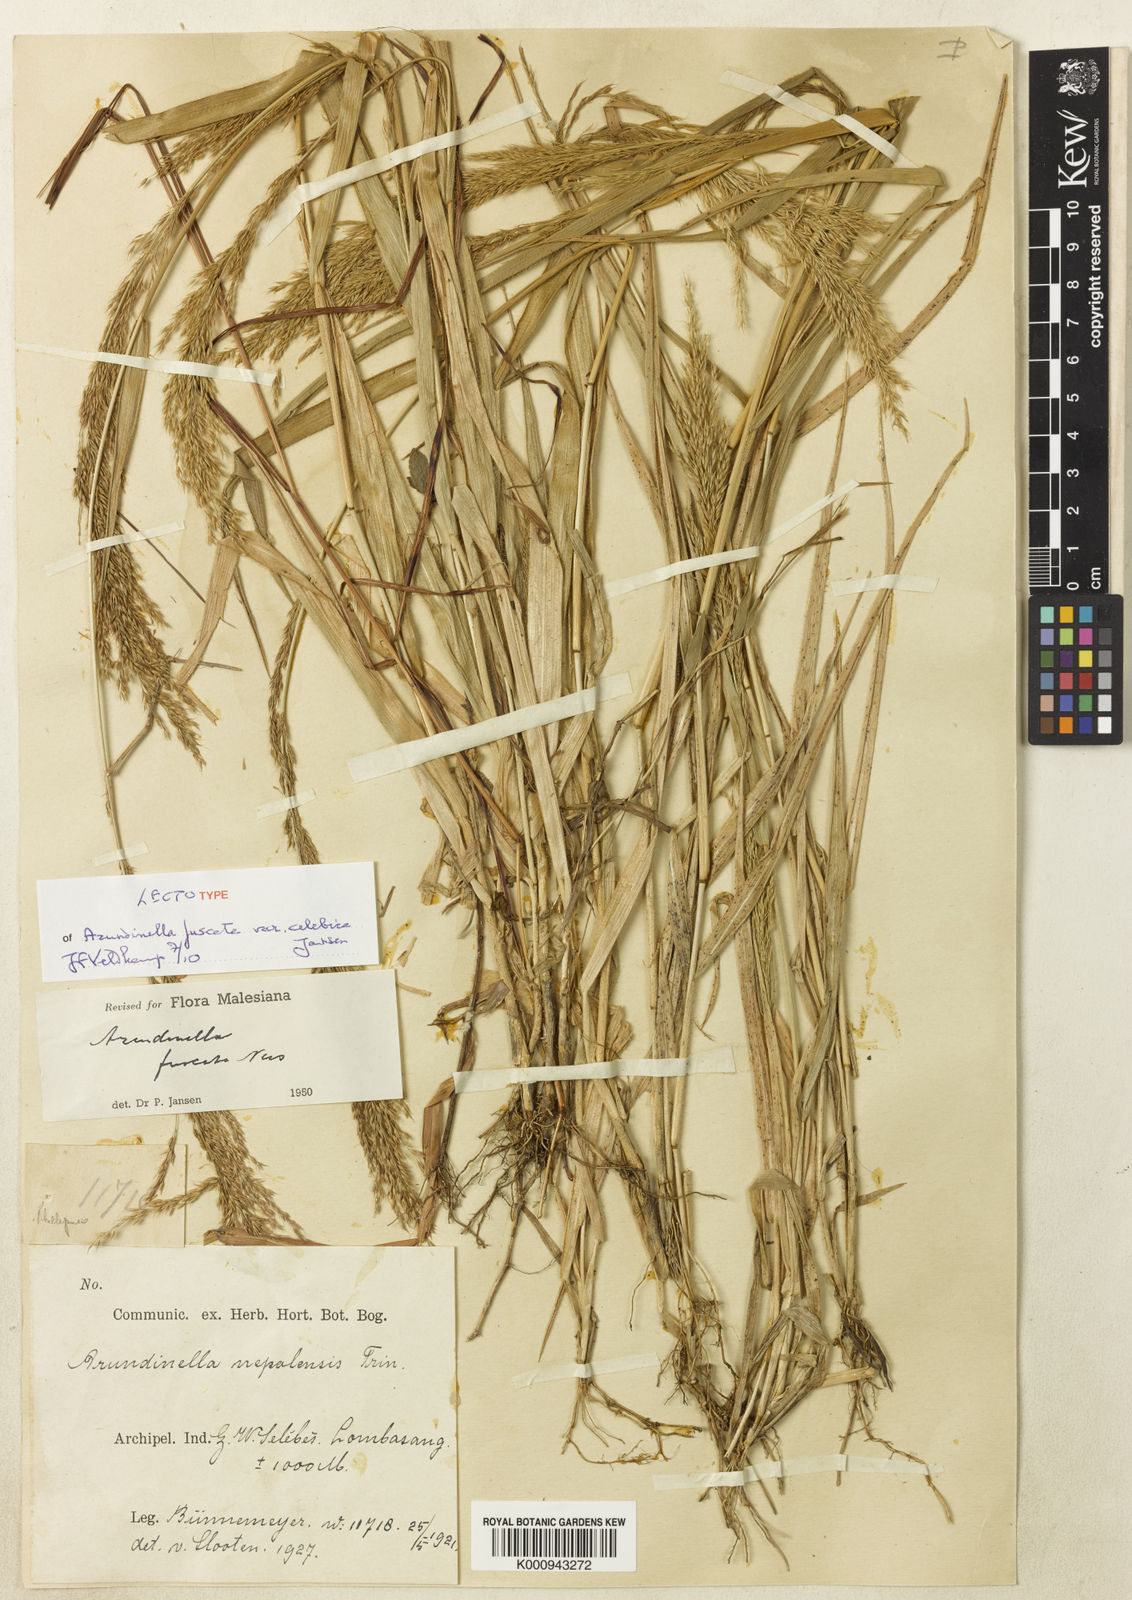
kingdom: Plantae
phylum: Tracheophyta
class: Liliopsida
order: Poales
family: Poaceae
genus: Arundinella
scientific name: Arundinella
